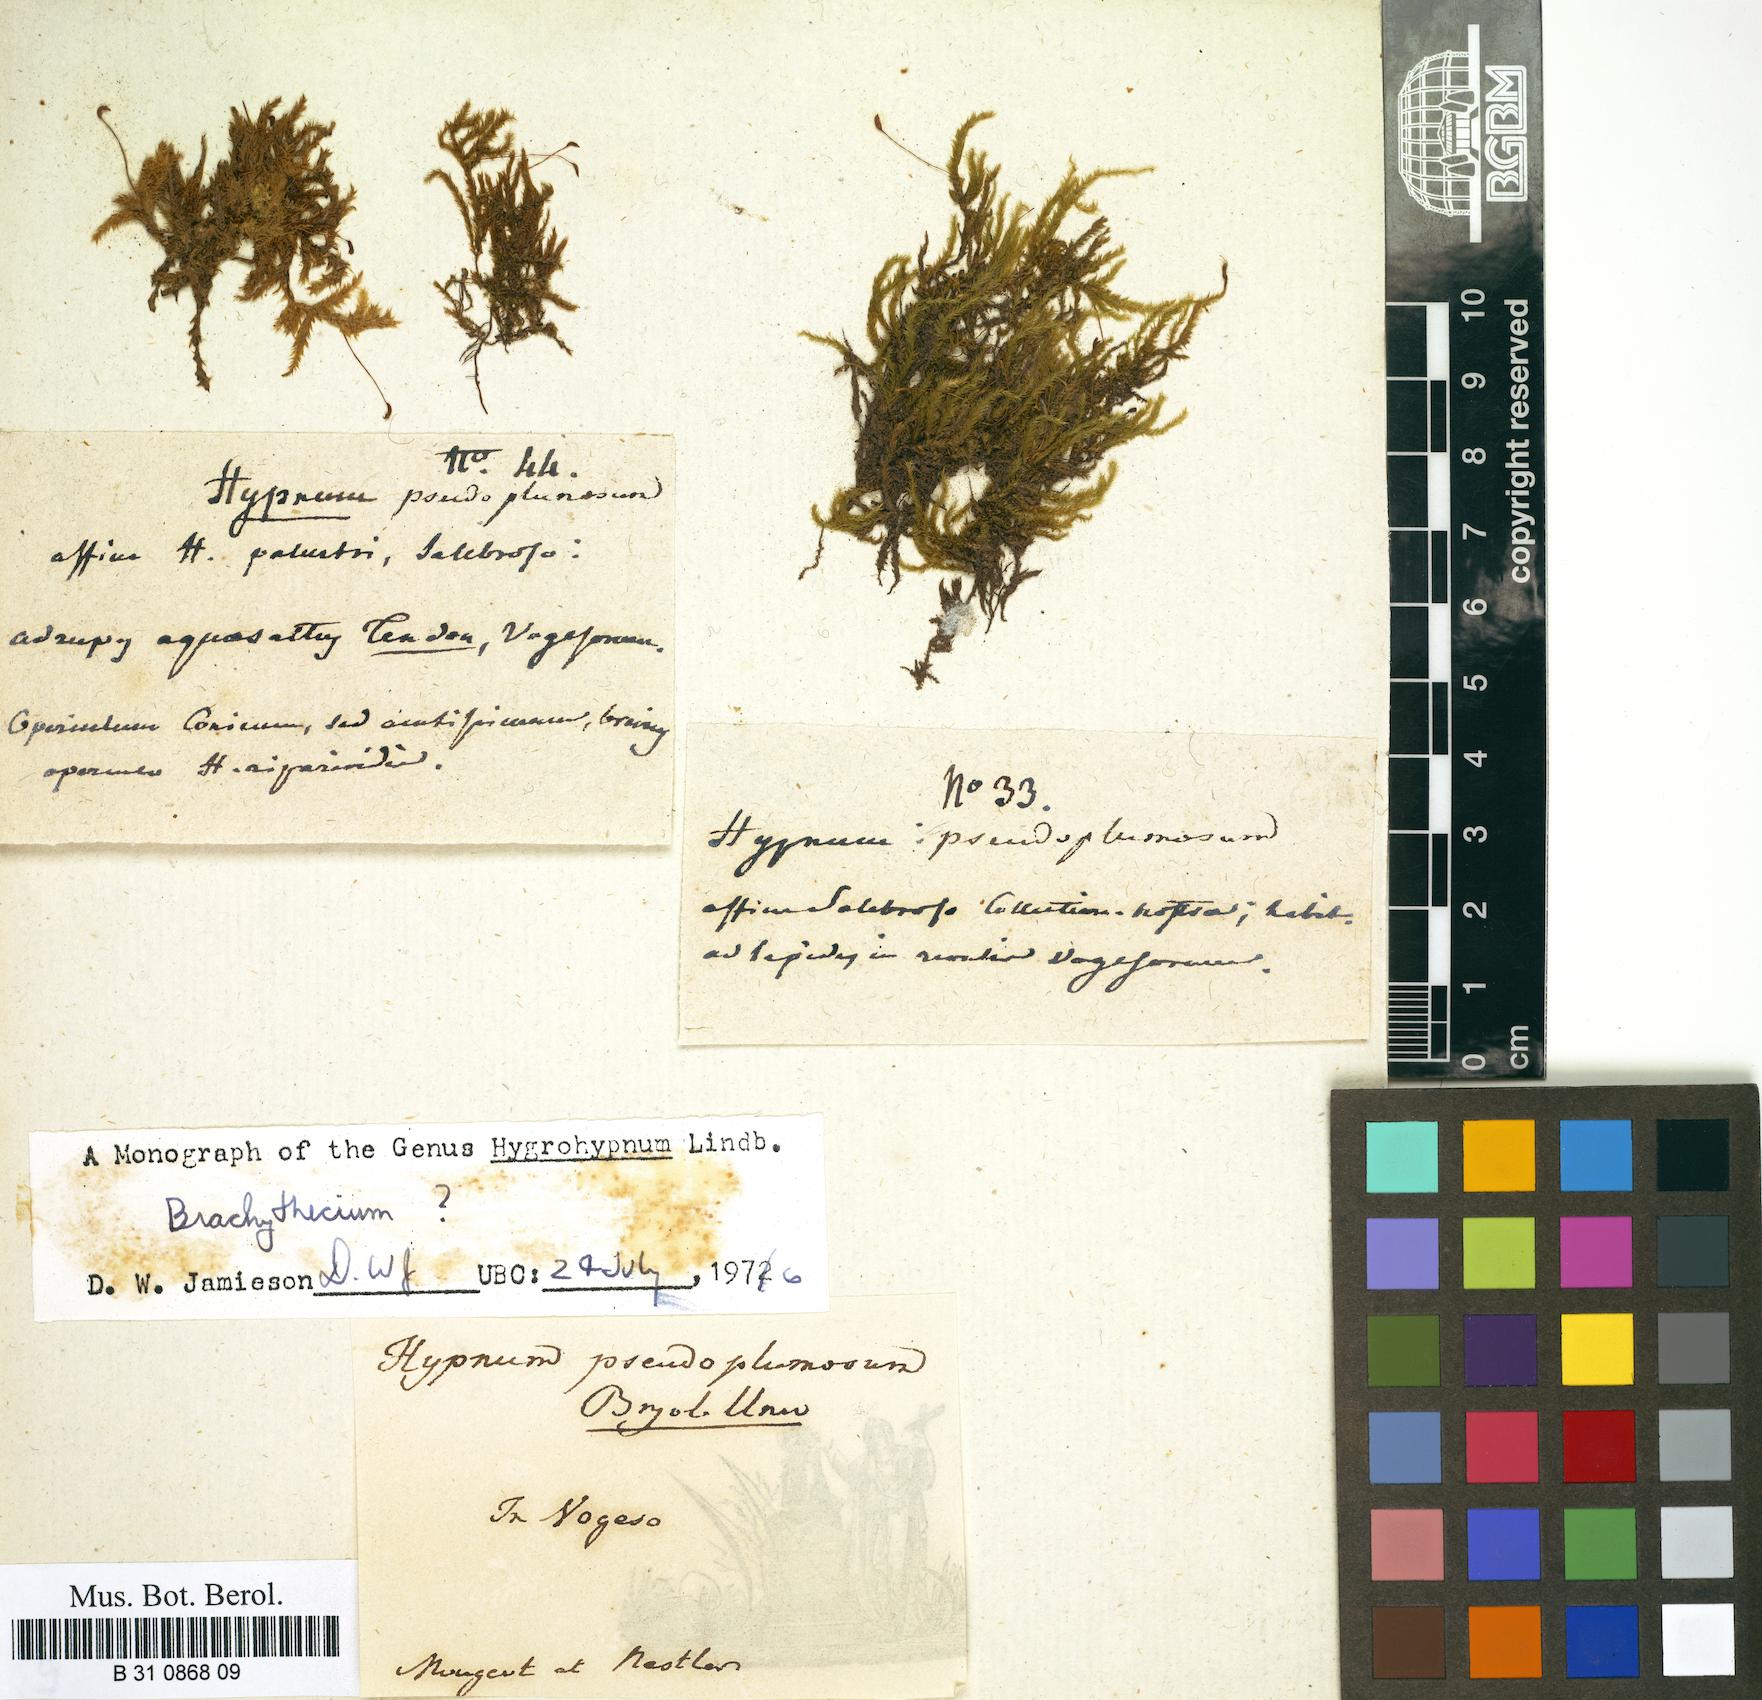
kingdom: Plantae
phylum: Bryophyta
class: Bryopsida
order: Hypnales
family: Brachytheciaceae
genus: Sciuro-hypnum
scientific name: Sciuro-hypnum plumosum
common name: Rusty feather-moss
